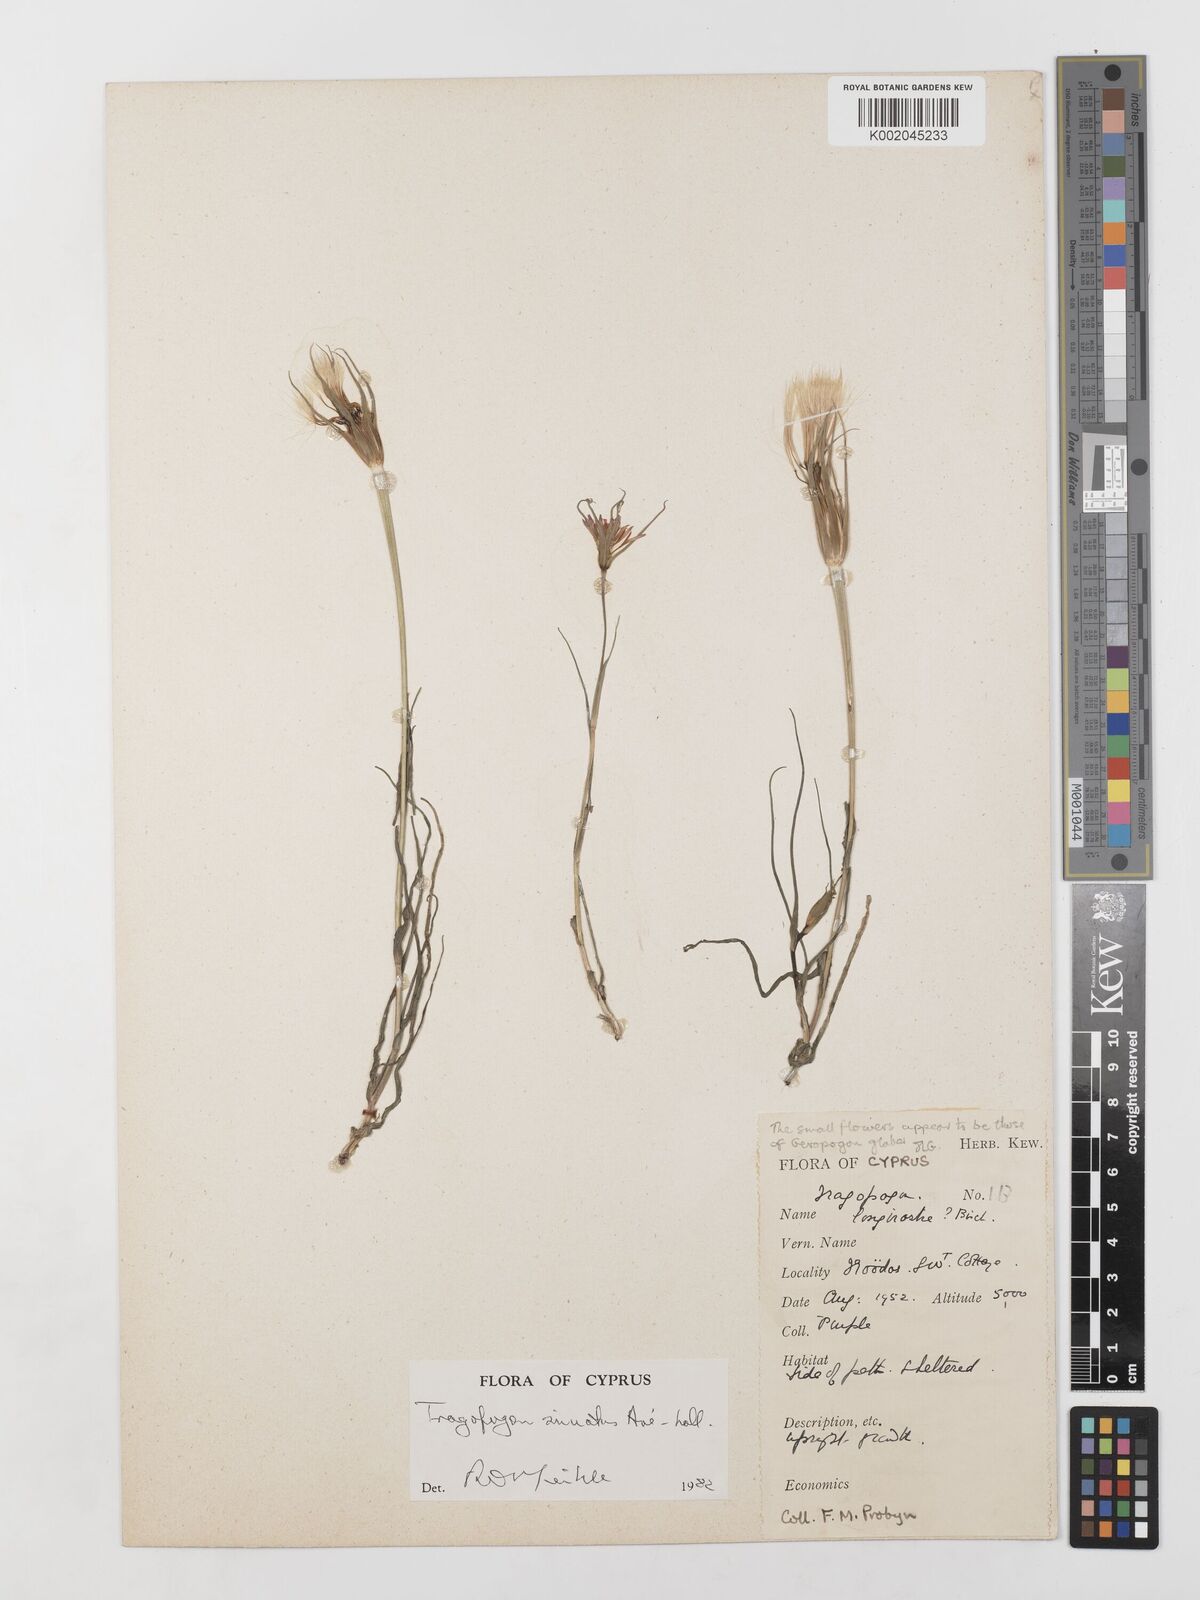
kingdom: Plantae
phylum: Tracheophyta
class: Magnoliopsida
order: Asterales
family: Asteraceae
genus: Tragopogon
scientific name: Tragopogon porrifolius
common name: Salsify
